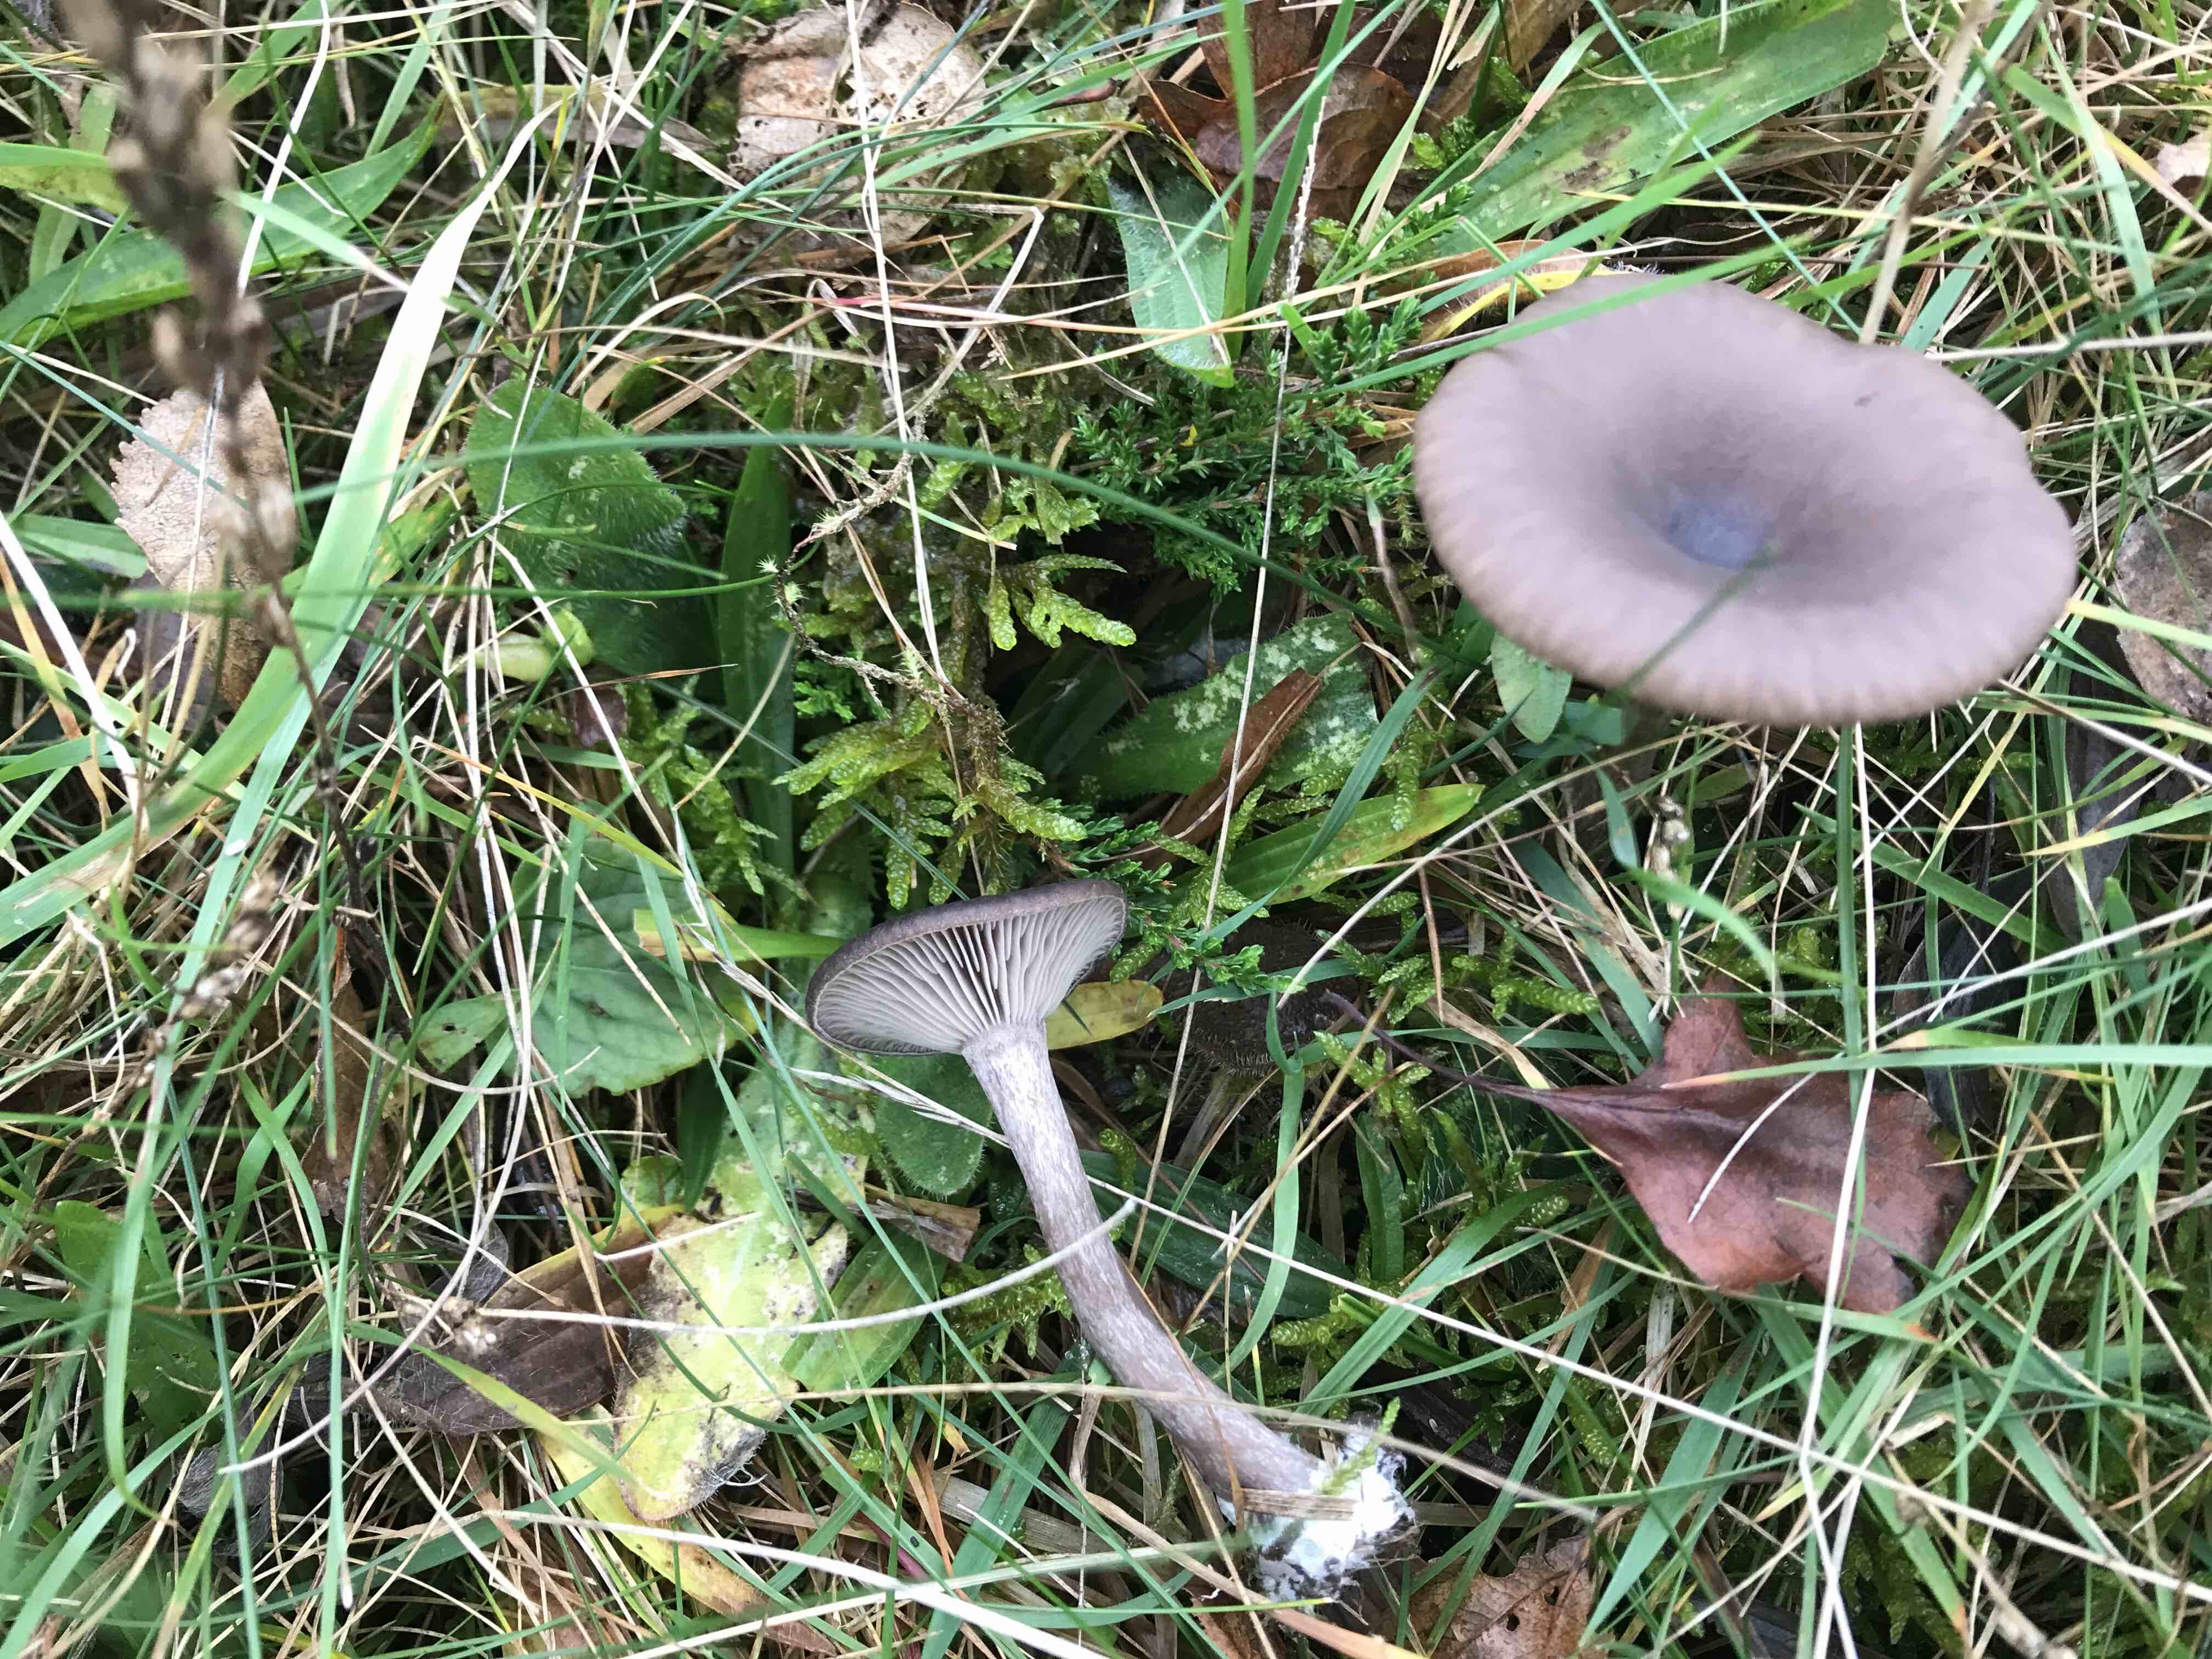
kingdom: Fungi
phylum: Basidiomycota
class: Agaricomycetes
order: Agaricales
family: Pseudoclitocybaceae
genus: Pseudoclitocybe
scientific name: Pseudoclitocybe expallens
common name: lille bægertragthat
